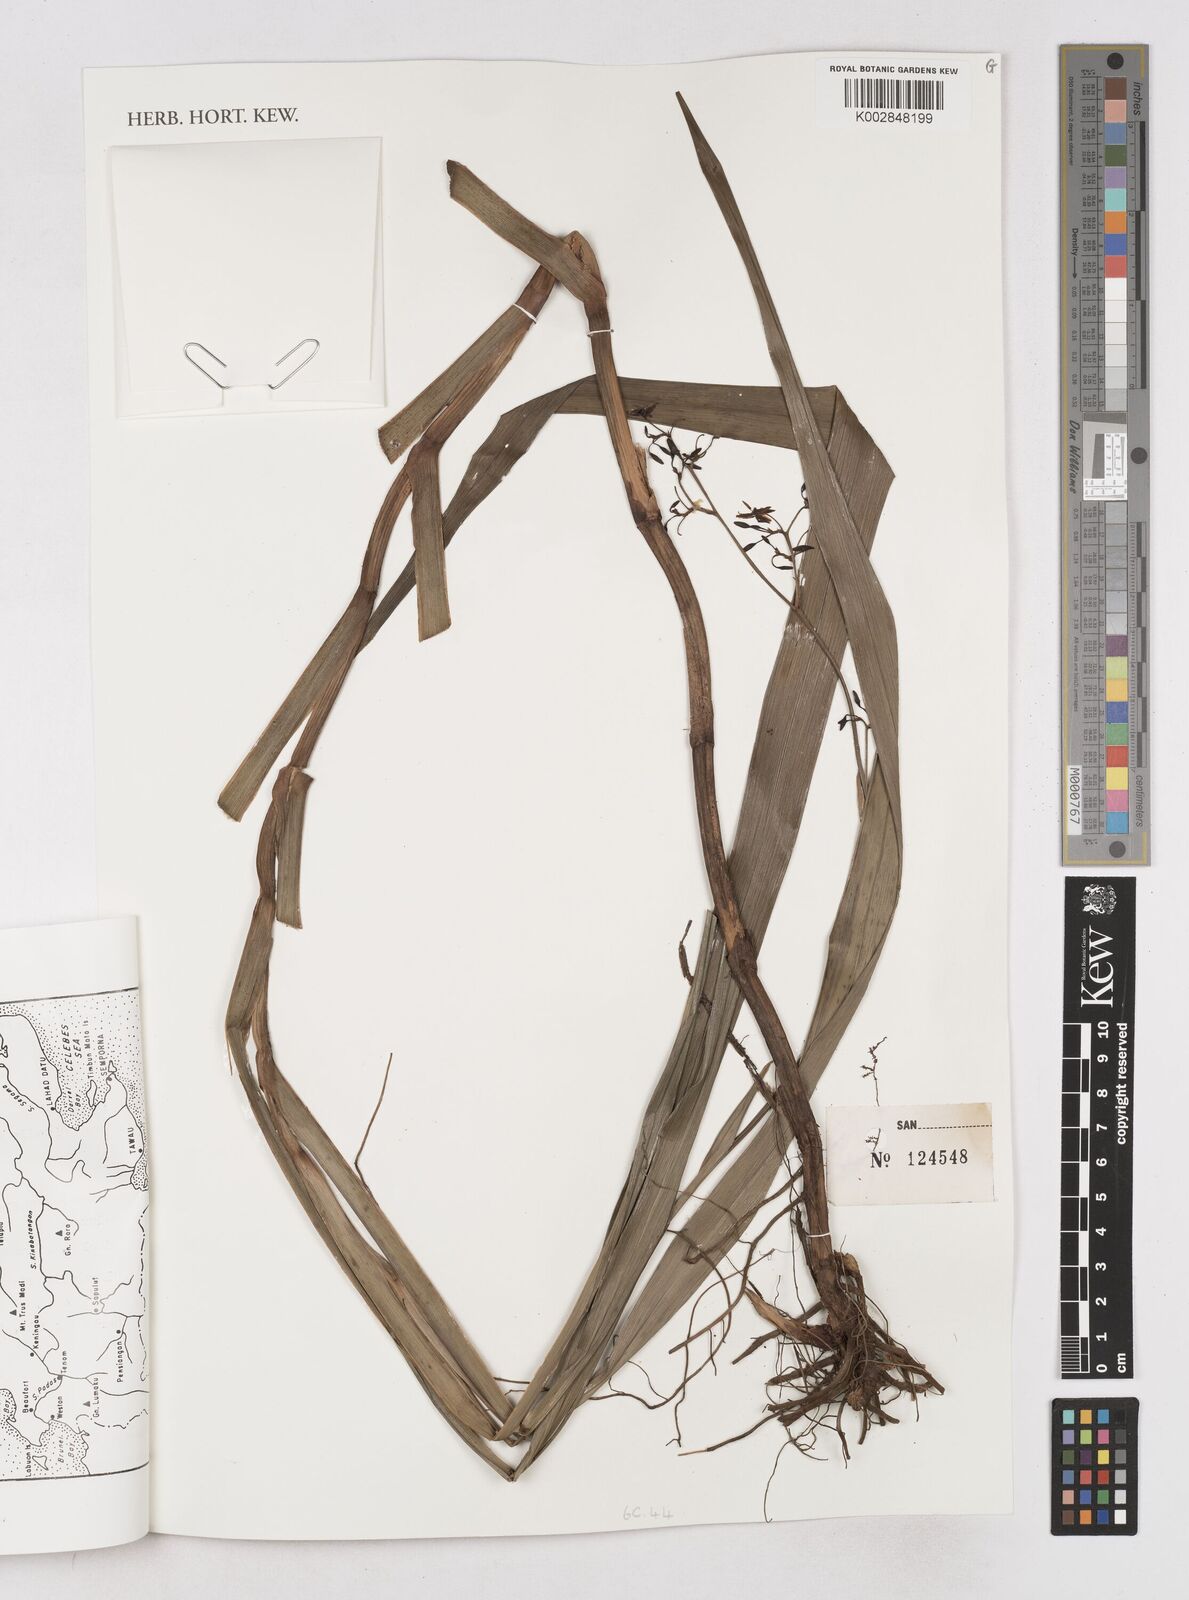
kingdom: Plantae
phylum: Tracheophyta
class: Liliopsida
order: Asparagales
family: Asphodelaceae
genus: Dianella
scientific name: Dianella ensifolia
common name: New zealand lilyplant
